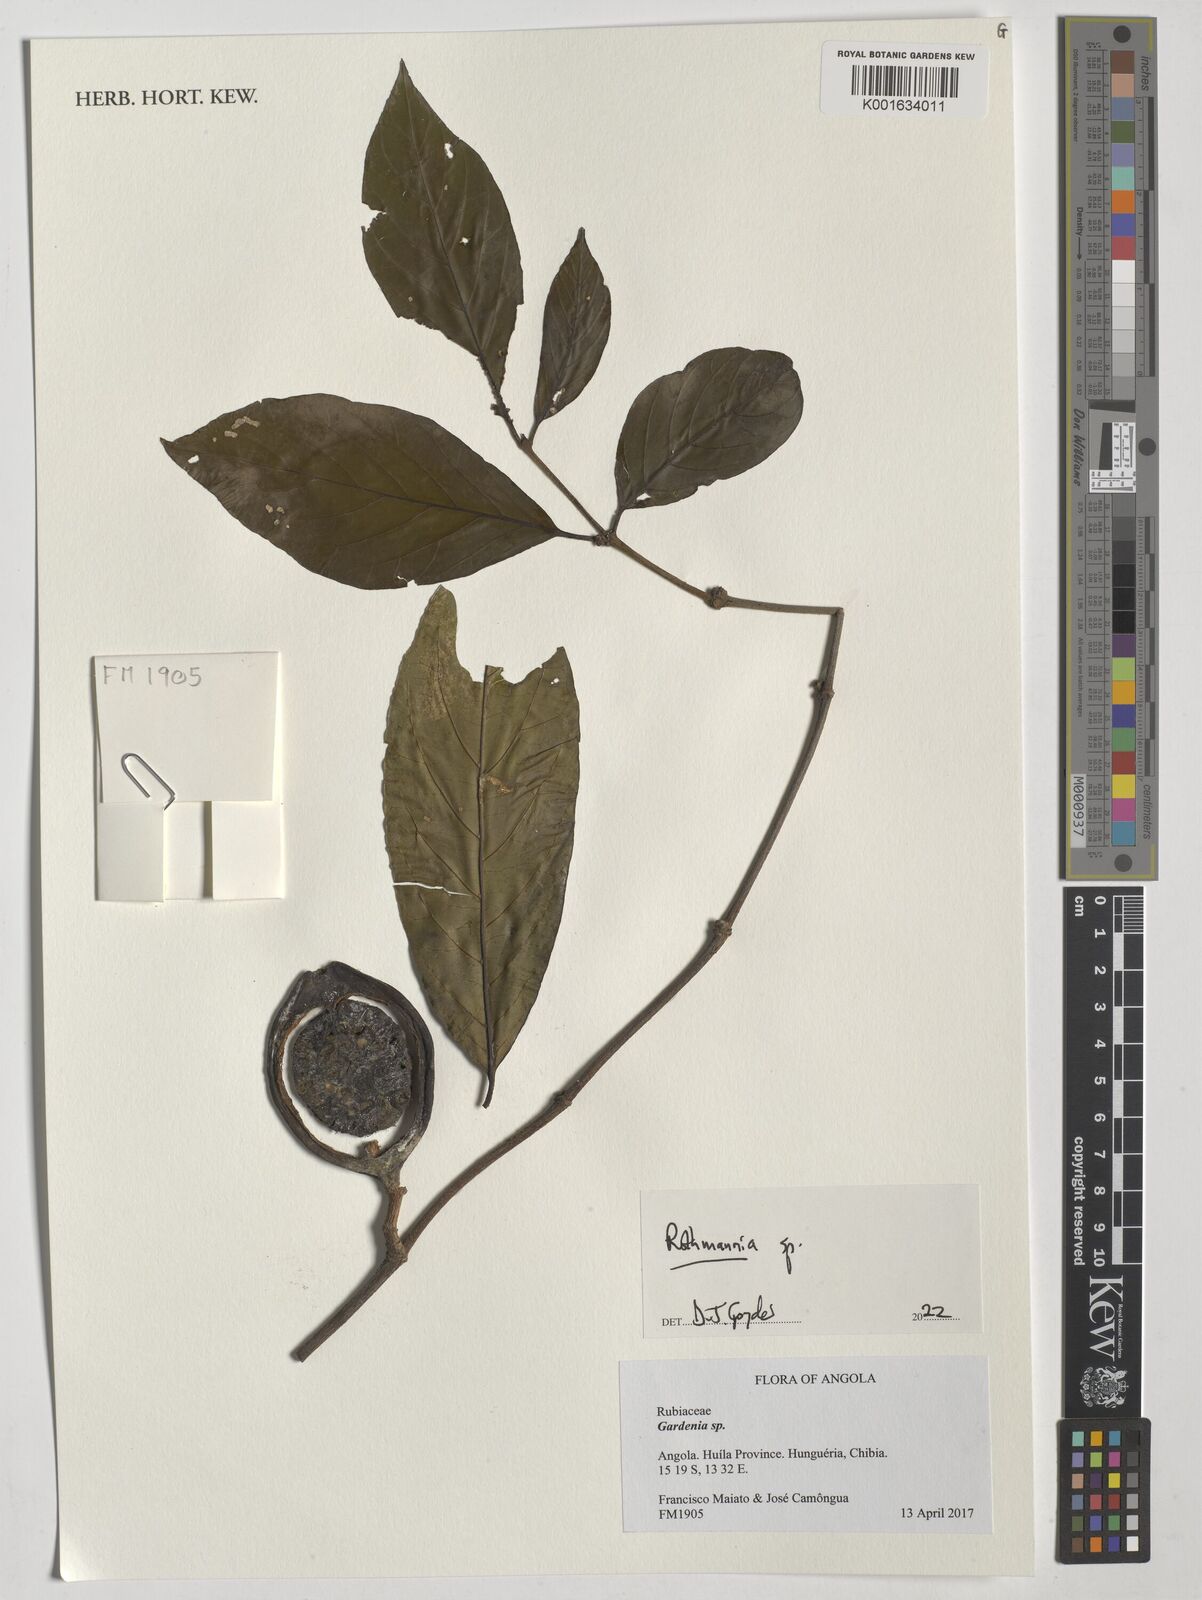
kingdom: Plantae
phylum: Tracheophyta
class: Magnoliopsida
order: Gentianales
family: Rubiaceae
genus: Rothmannia
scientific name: Rothmannia
